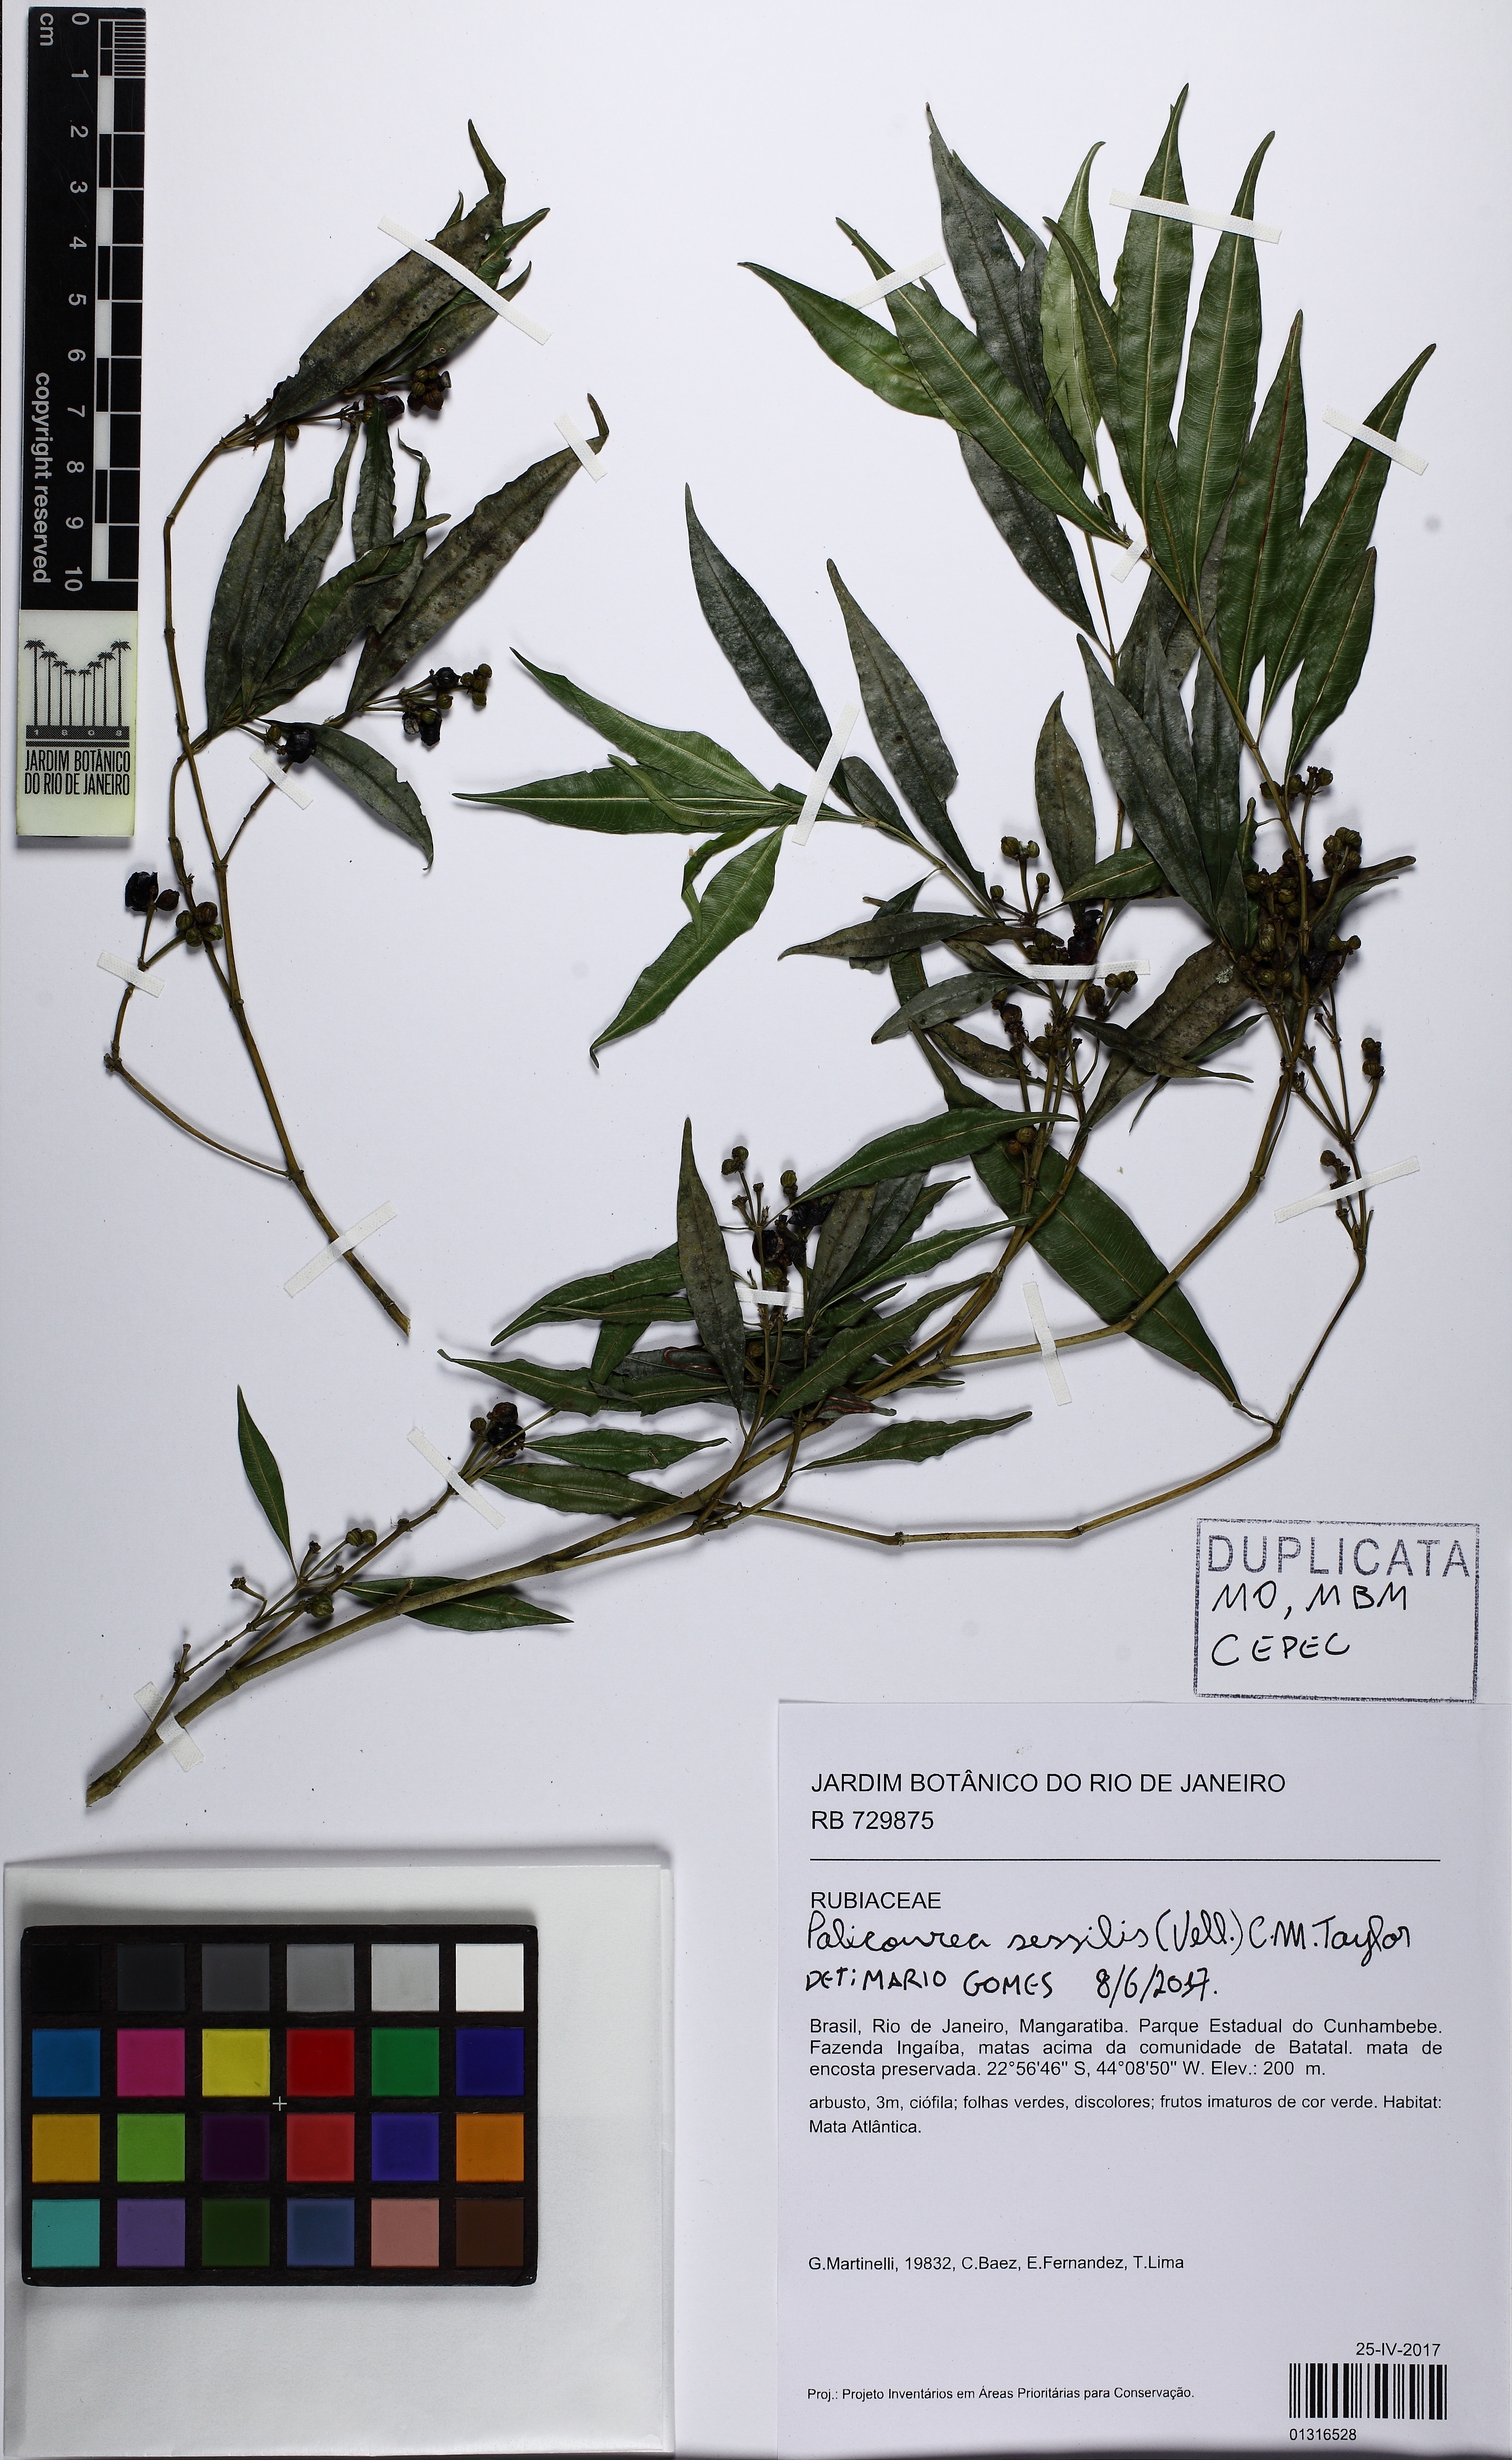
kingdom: Plantae
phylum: Tracheophyta
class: Magnoliopsida
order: Gentianales
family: Rubiaceae
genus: Palicourea
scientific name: Palicourea sessilis
